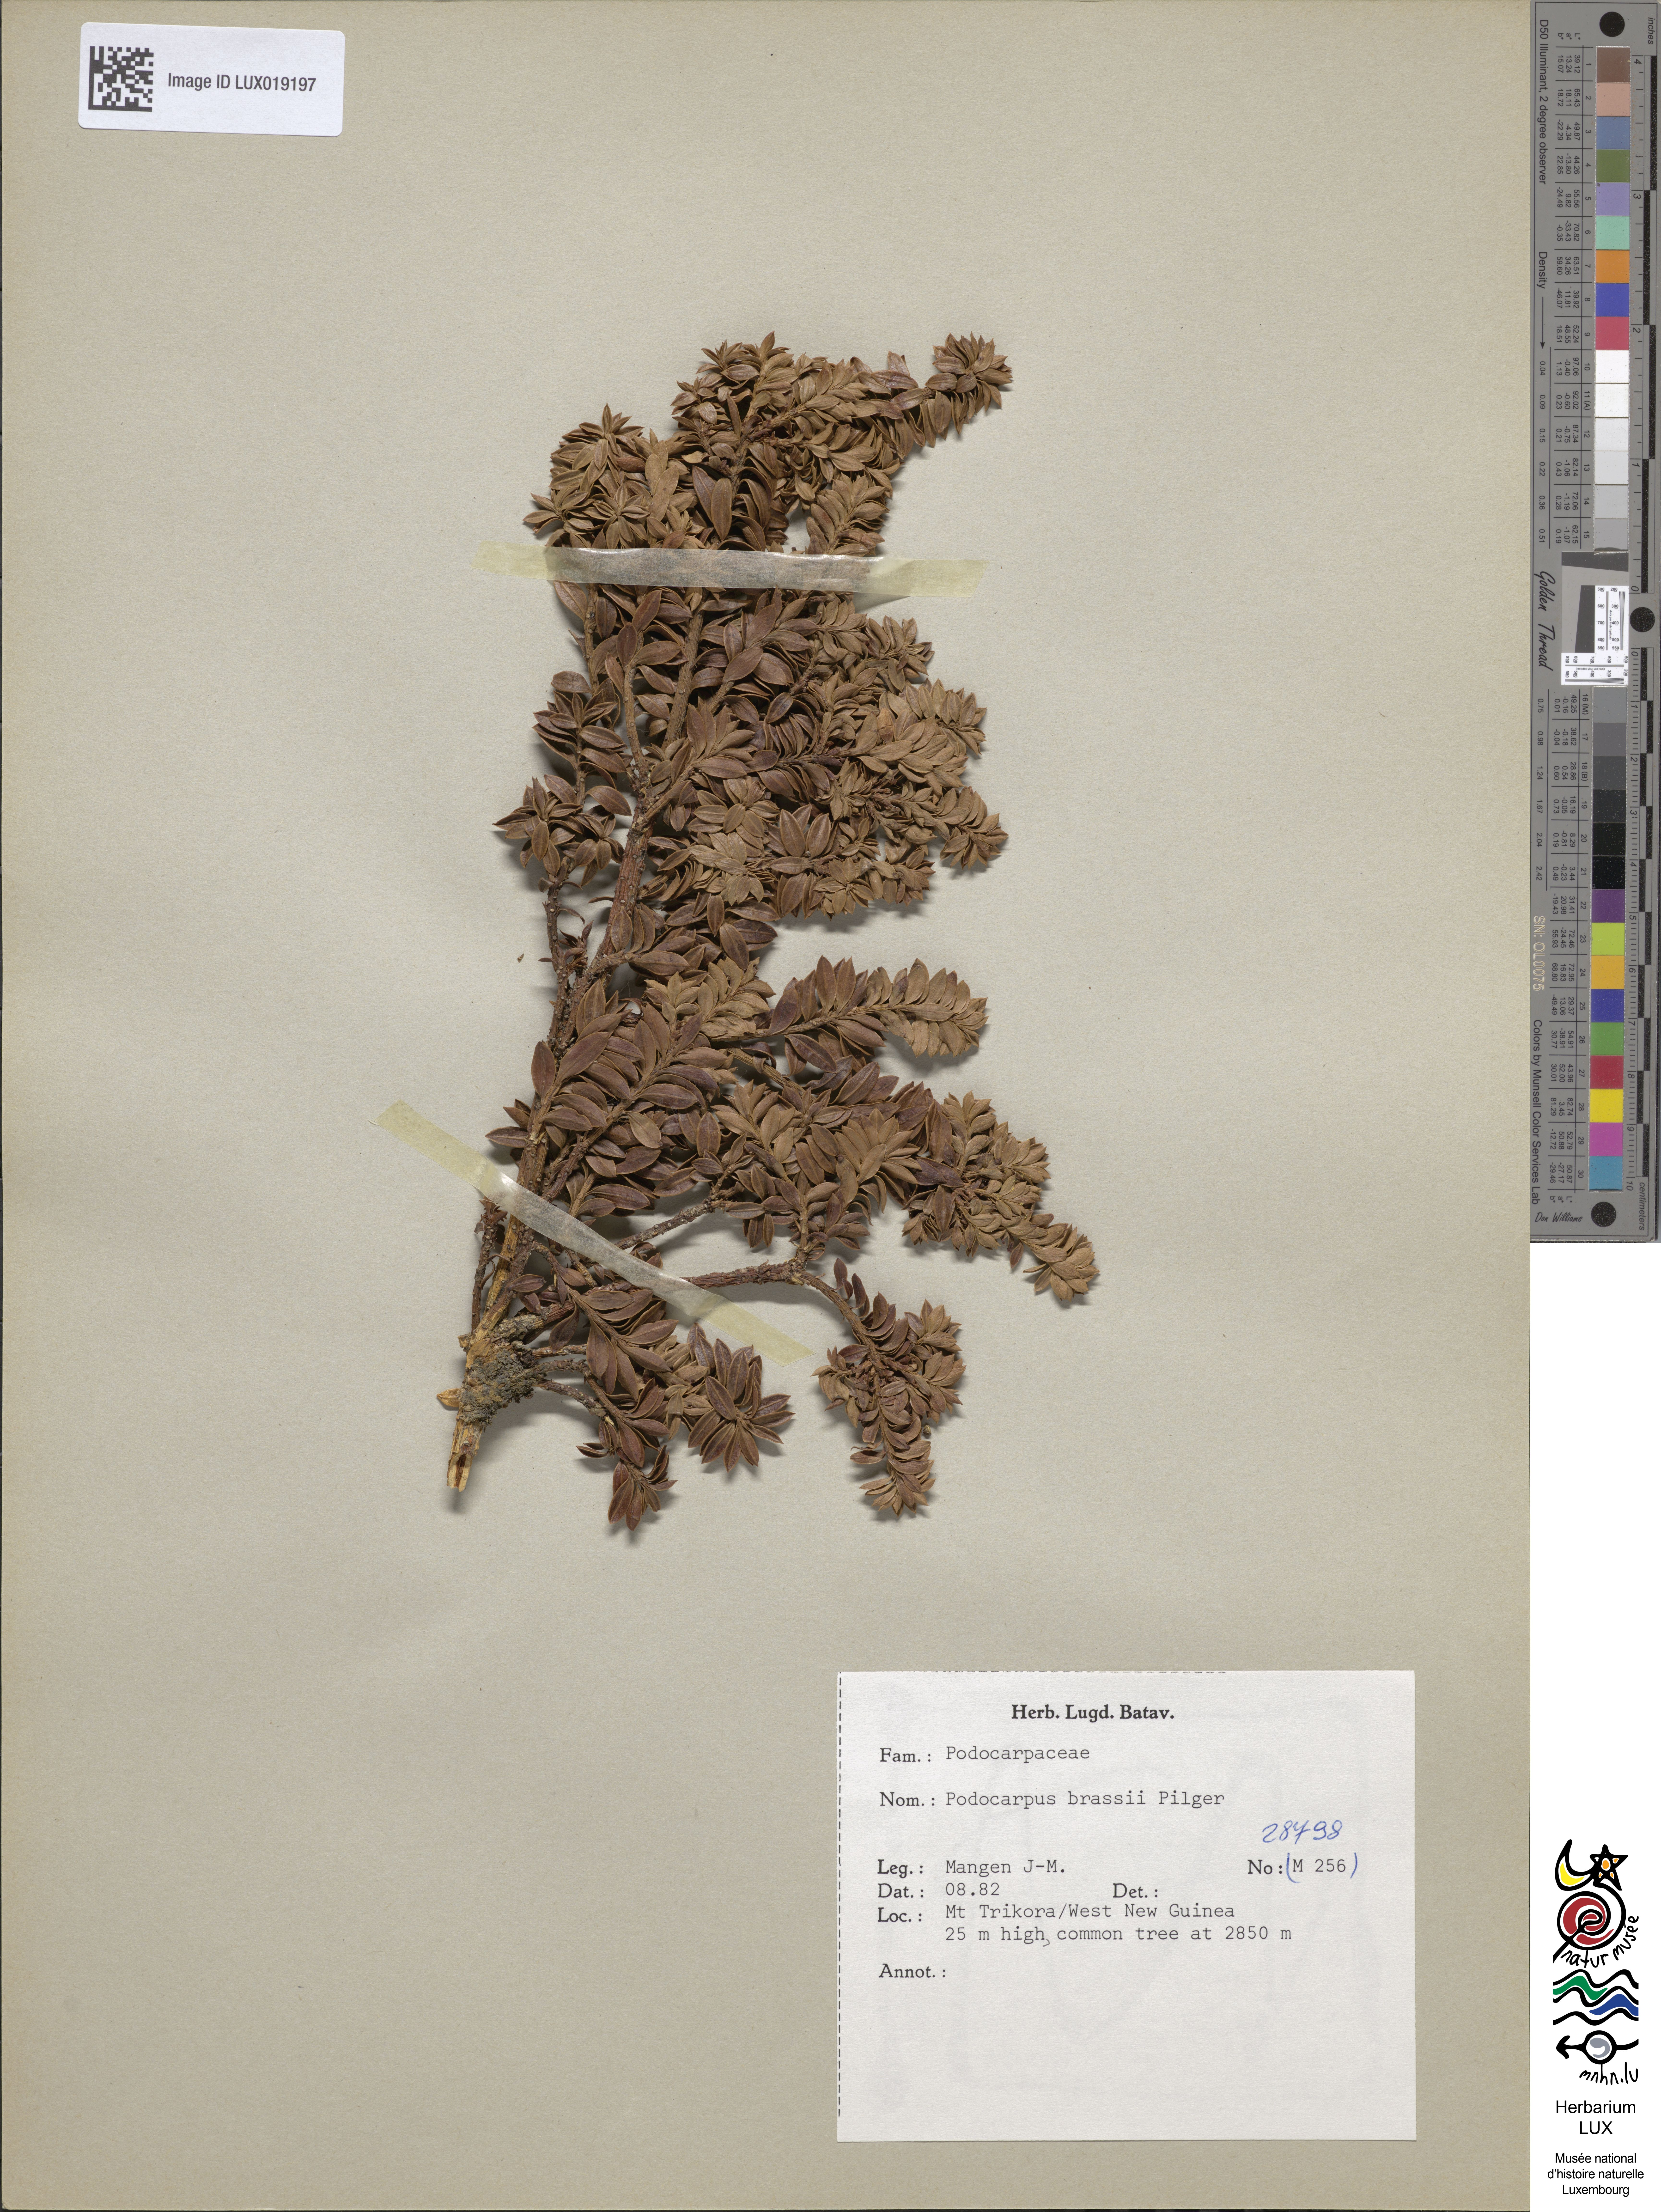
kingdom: Plantae
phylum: Tracheophyta
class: Pinopsida
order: Pinales
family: Podocarpaceae
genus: Podocarpus
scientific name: Podocarpus brassii
